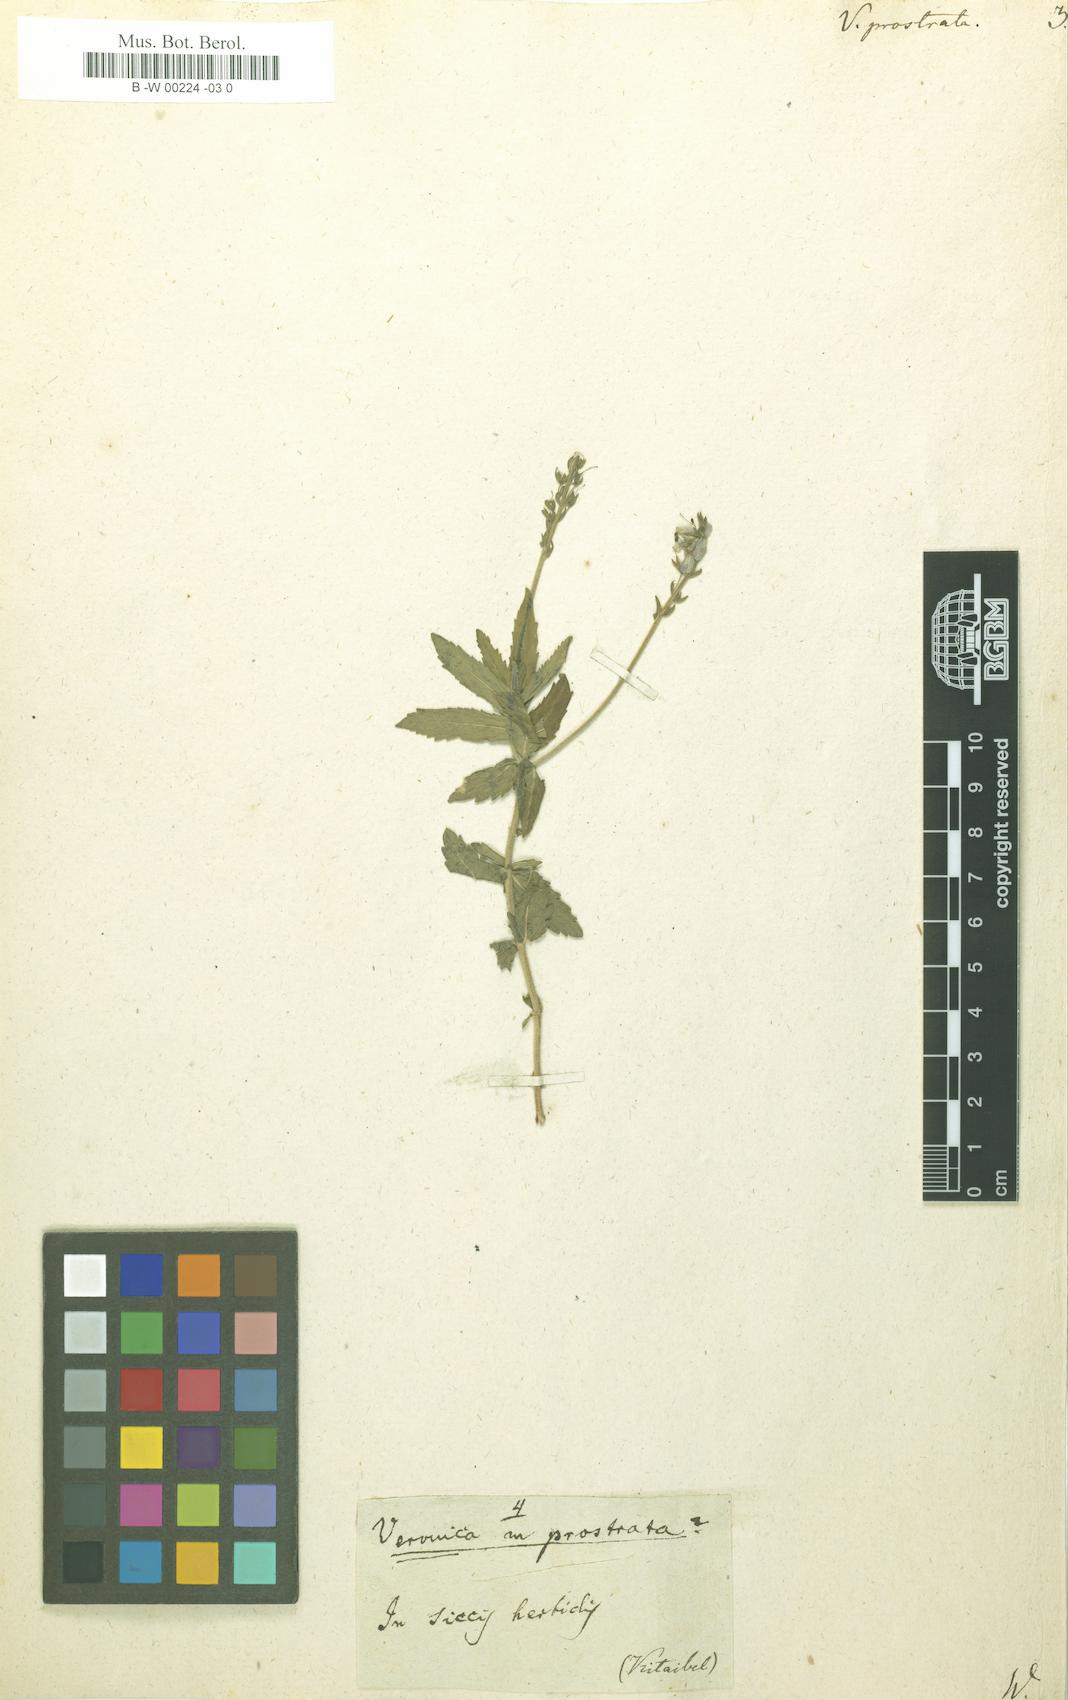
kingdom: Plantae
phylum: Tracheophyta
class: Magnoliopsida
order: Lamiales
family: Plantaginaceae
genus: Veronica
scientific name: Veronica prostrata
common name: Prostrate speedwell
